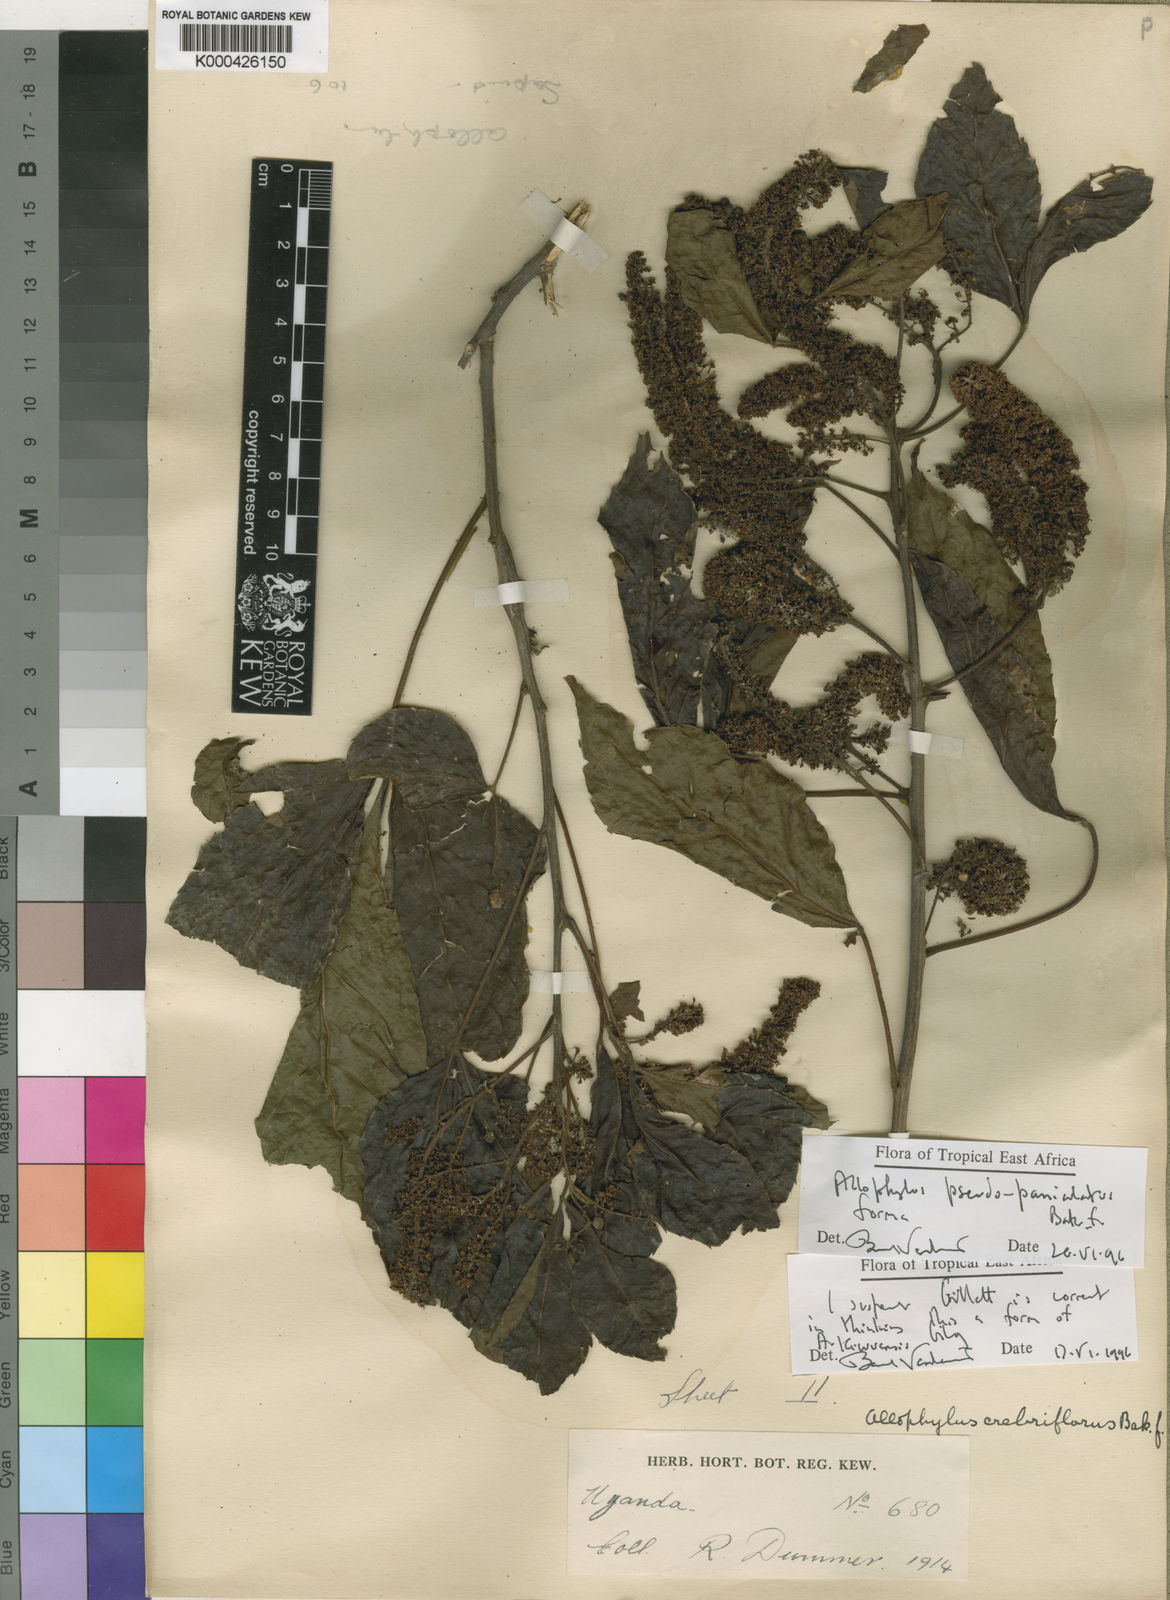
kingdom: Plantae
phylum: Tracheophyta
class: Magnoliopsida
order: Sapindales
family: Sapindaceae
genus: Allophylus
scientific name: Allophylus pseudopaniculatus
